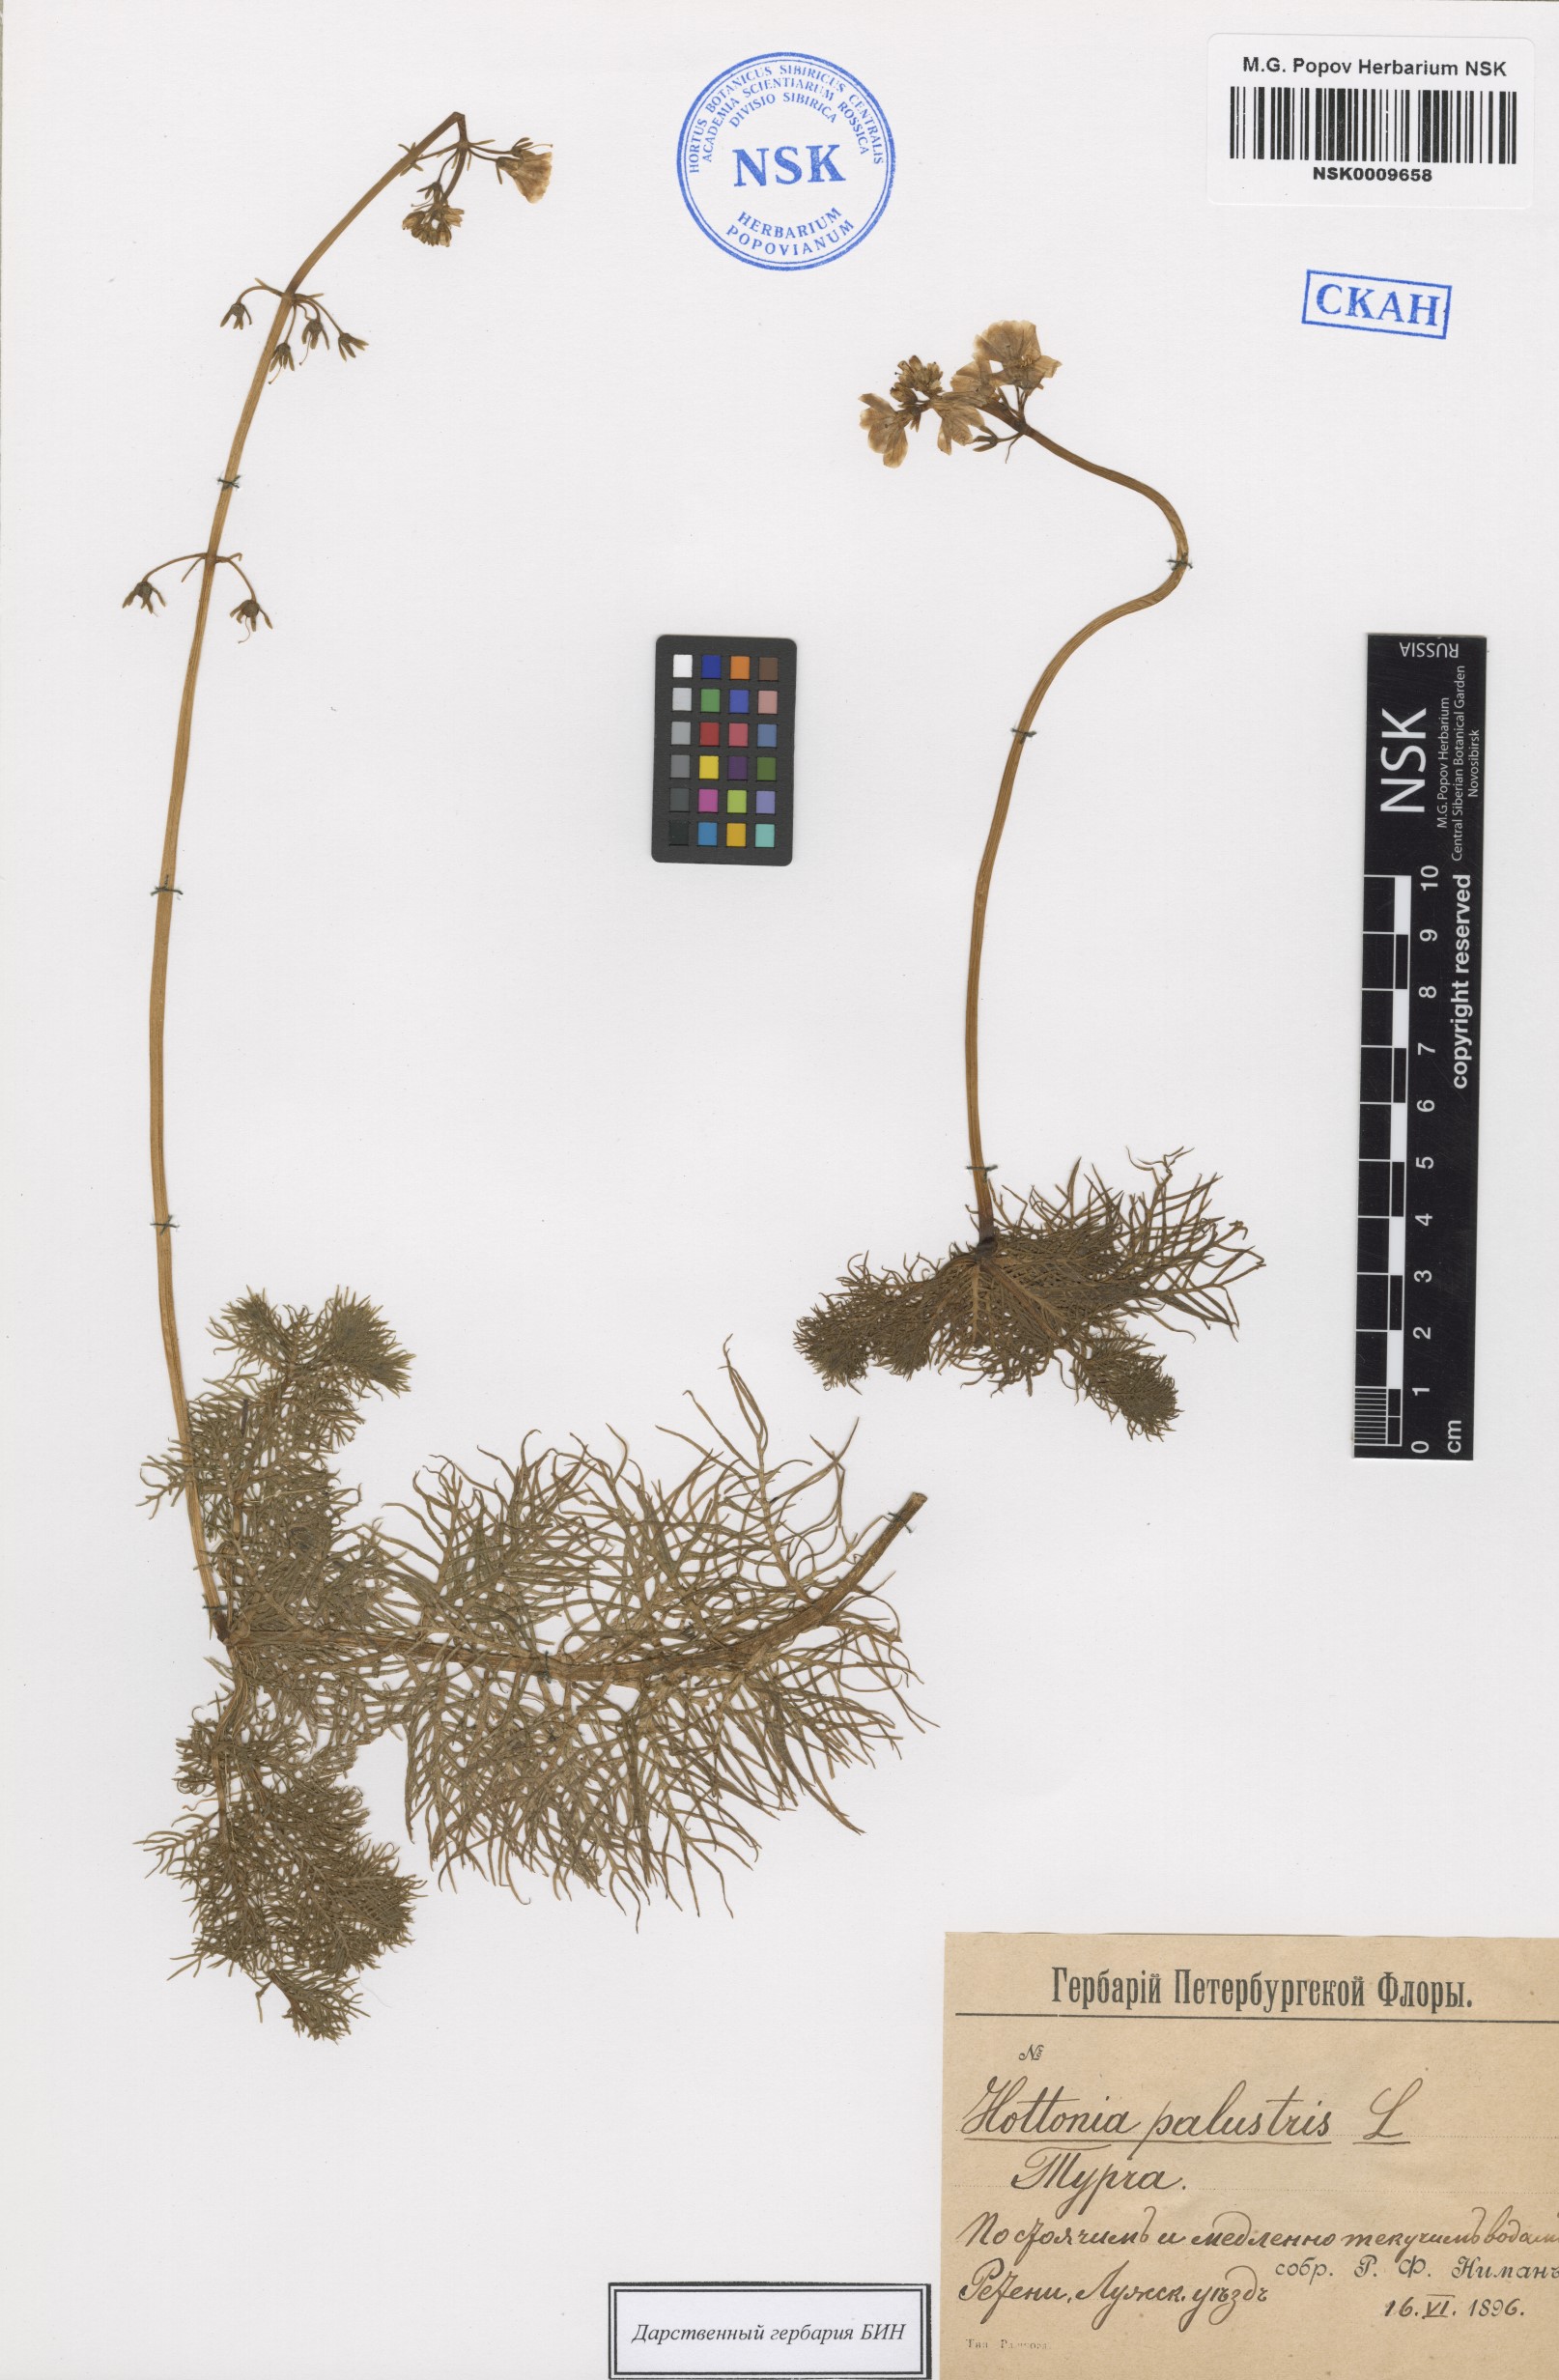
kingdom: Plantae
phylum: Tracheophyta
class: Magnoliopsida
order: Ericales
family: Primulaceae
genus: Hottonia
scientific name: Hottonia palustris
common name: Water-violet
